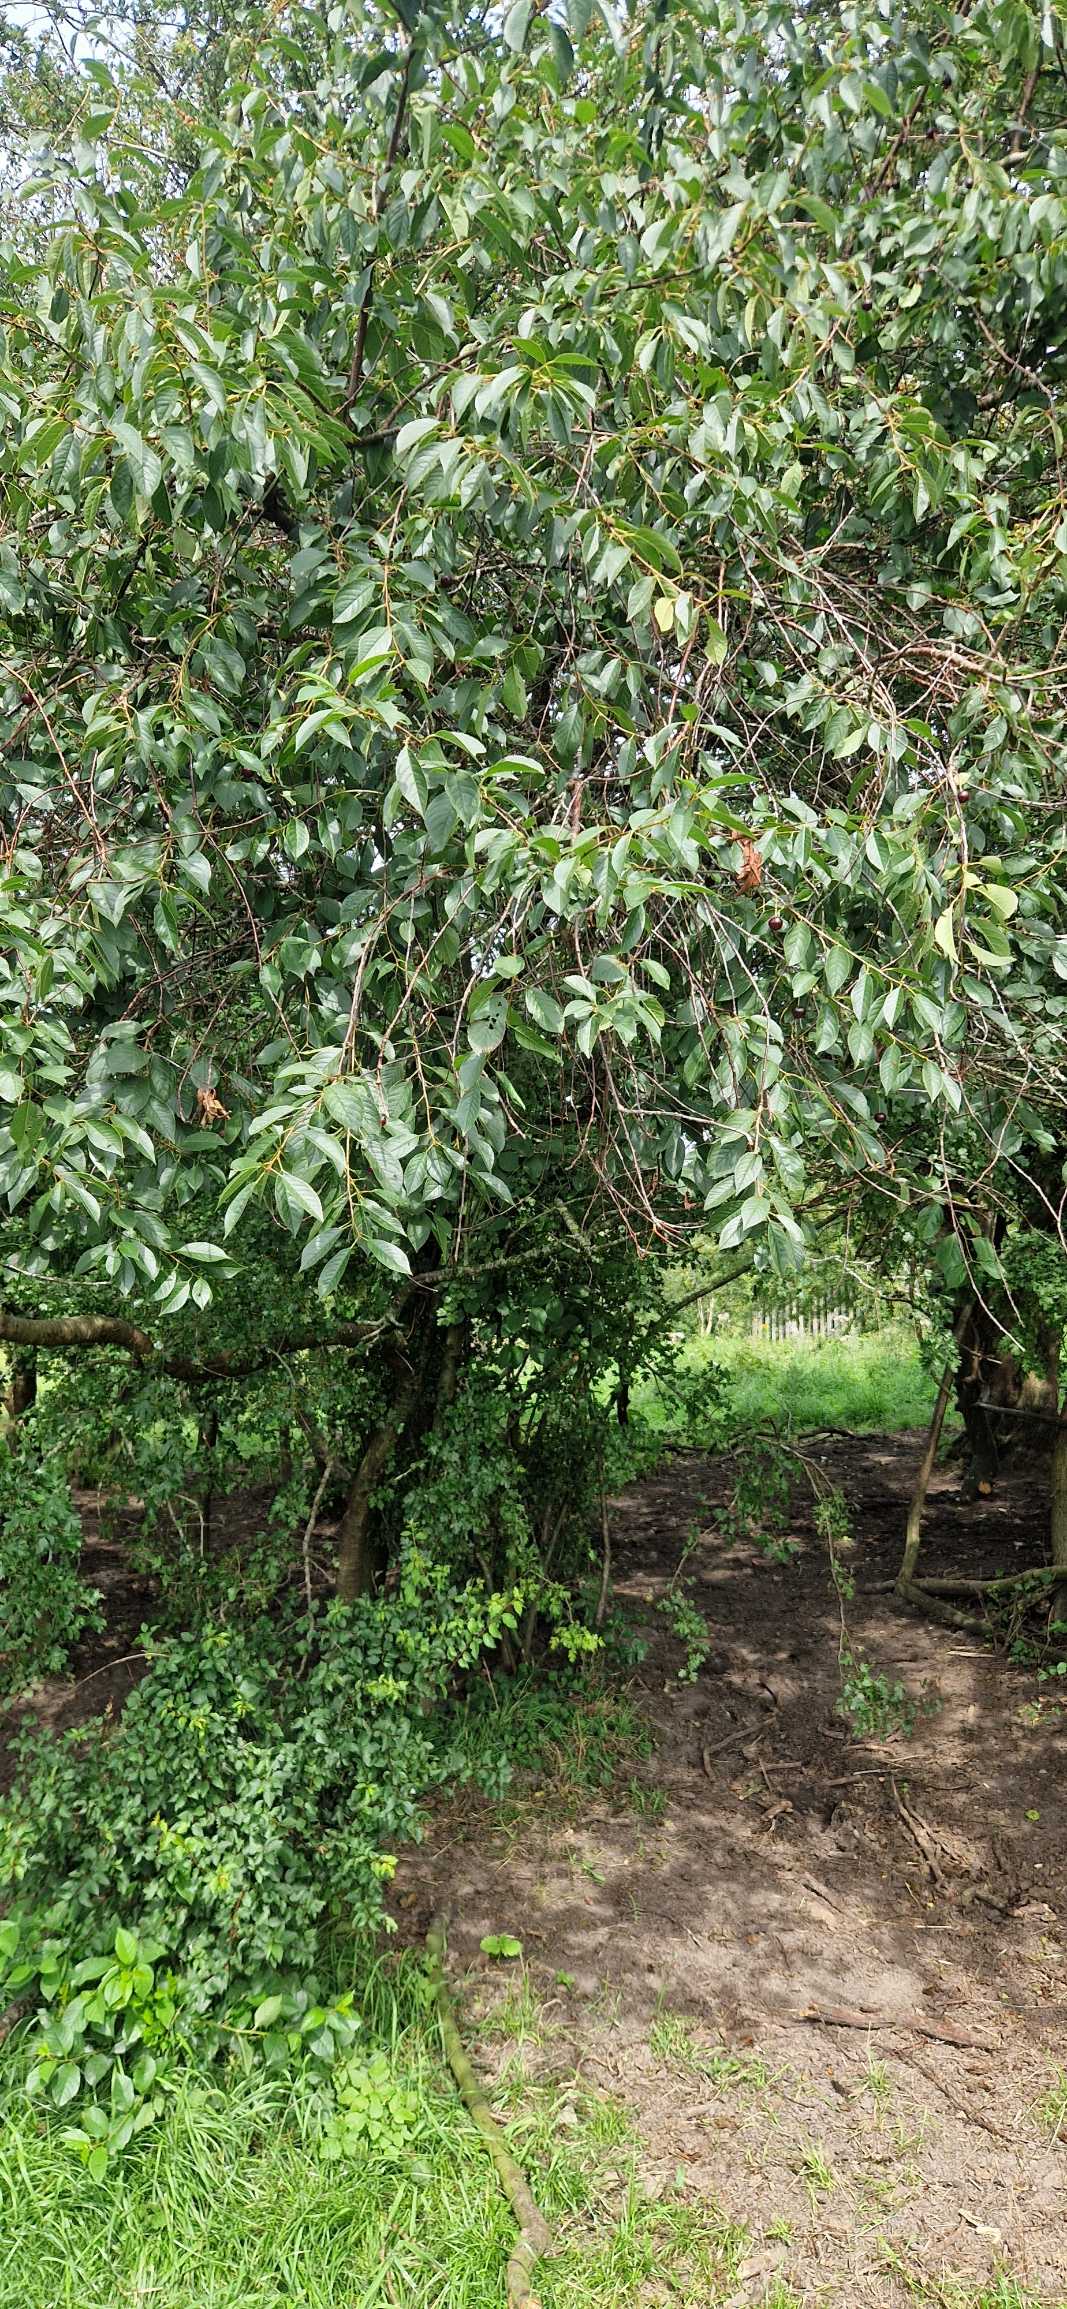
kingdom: Plantae
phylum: Tracheophyta
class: Magnoliopsida
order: Rosales
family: Rosaceae
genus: Prunus
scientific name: Prunus cerasus
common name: Sur-kirsebær
